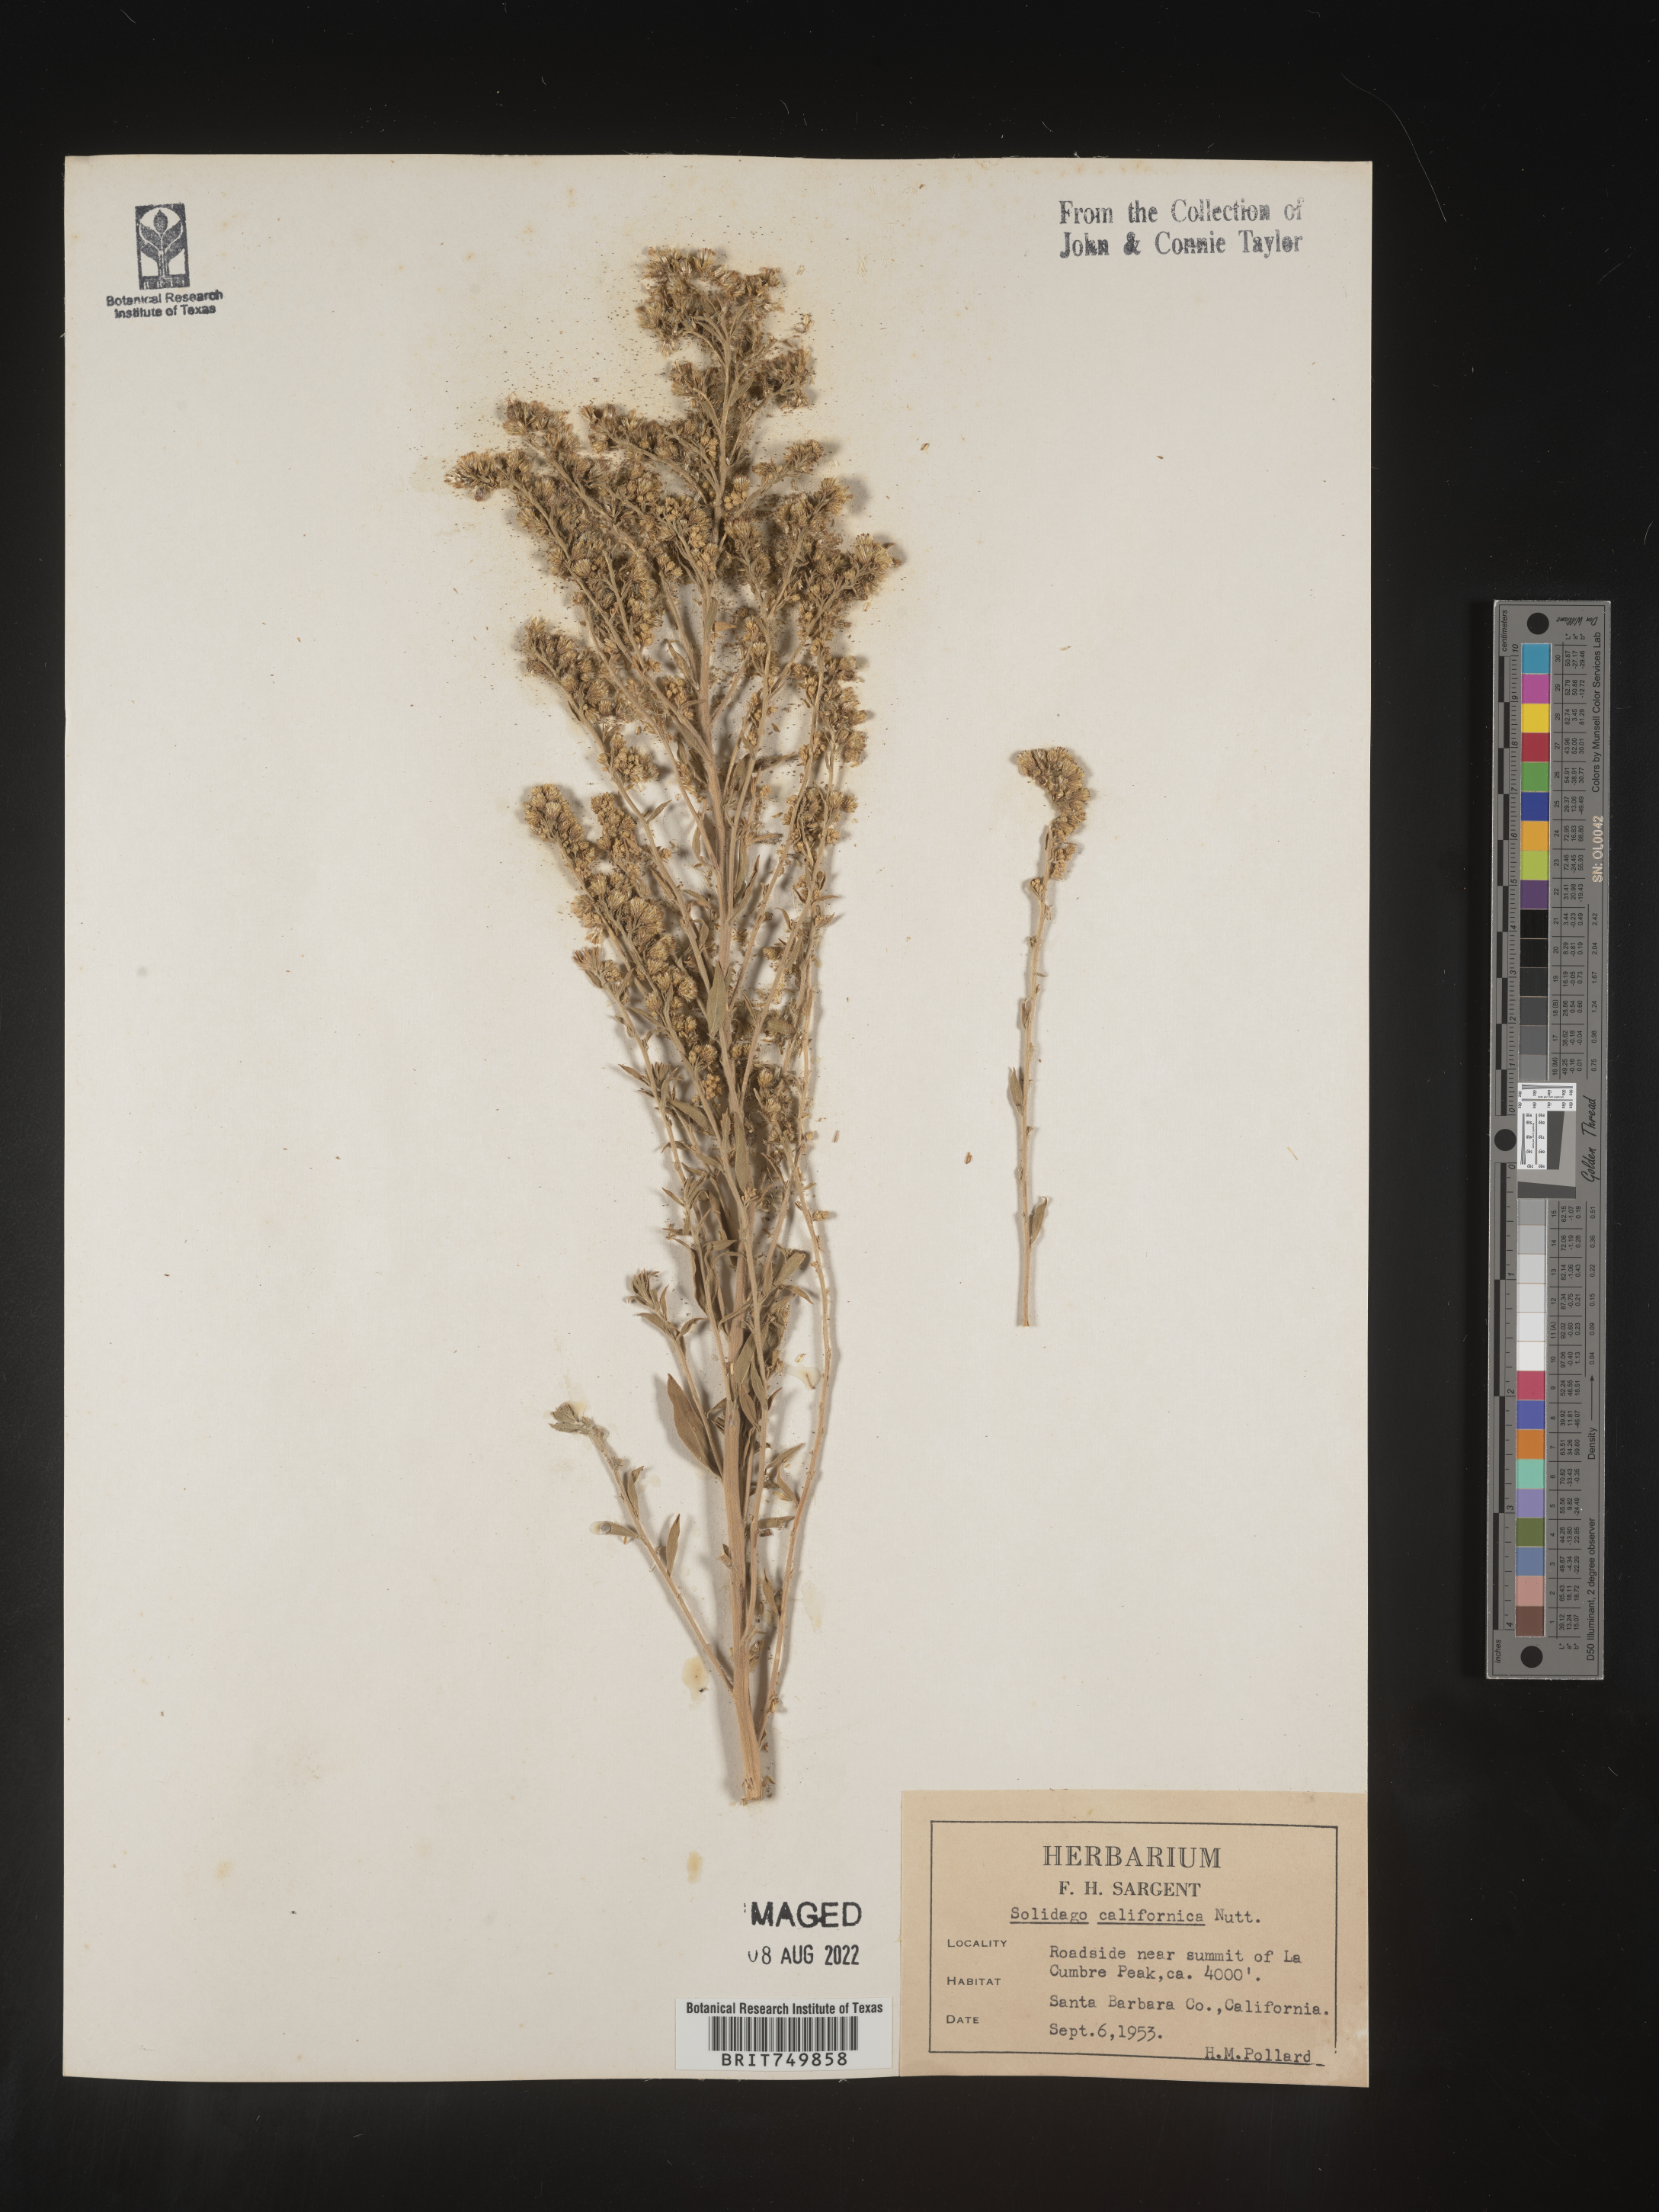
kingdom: Plantae
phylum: Tracheophyta
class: Magnoliopsida
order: Asterales
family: Asteraceae
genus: Solidago
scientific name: Solidago californica
